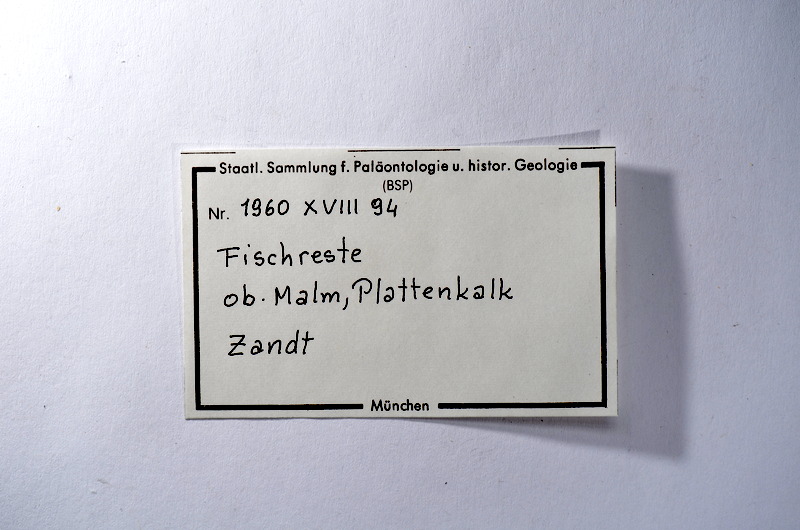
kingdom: Animalia
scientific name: Animalia
